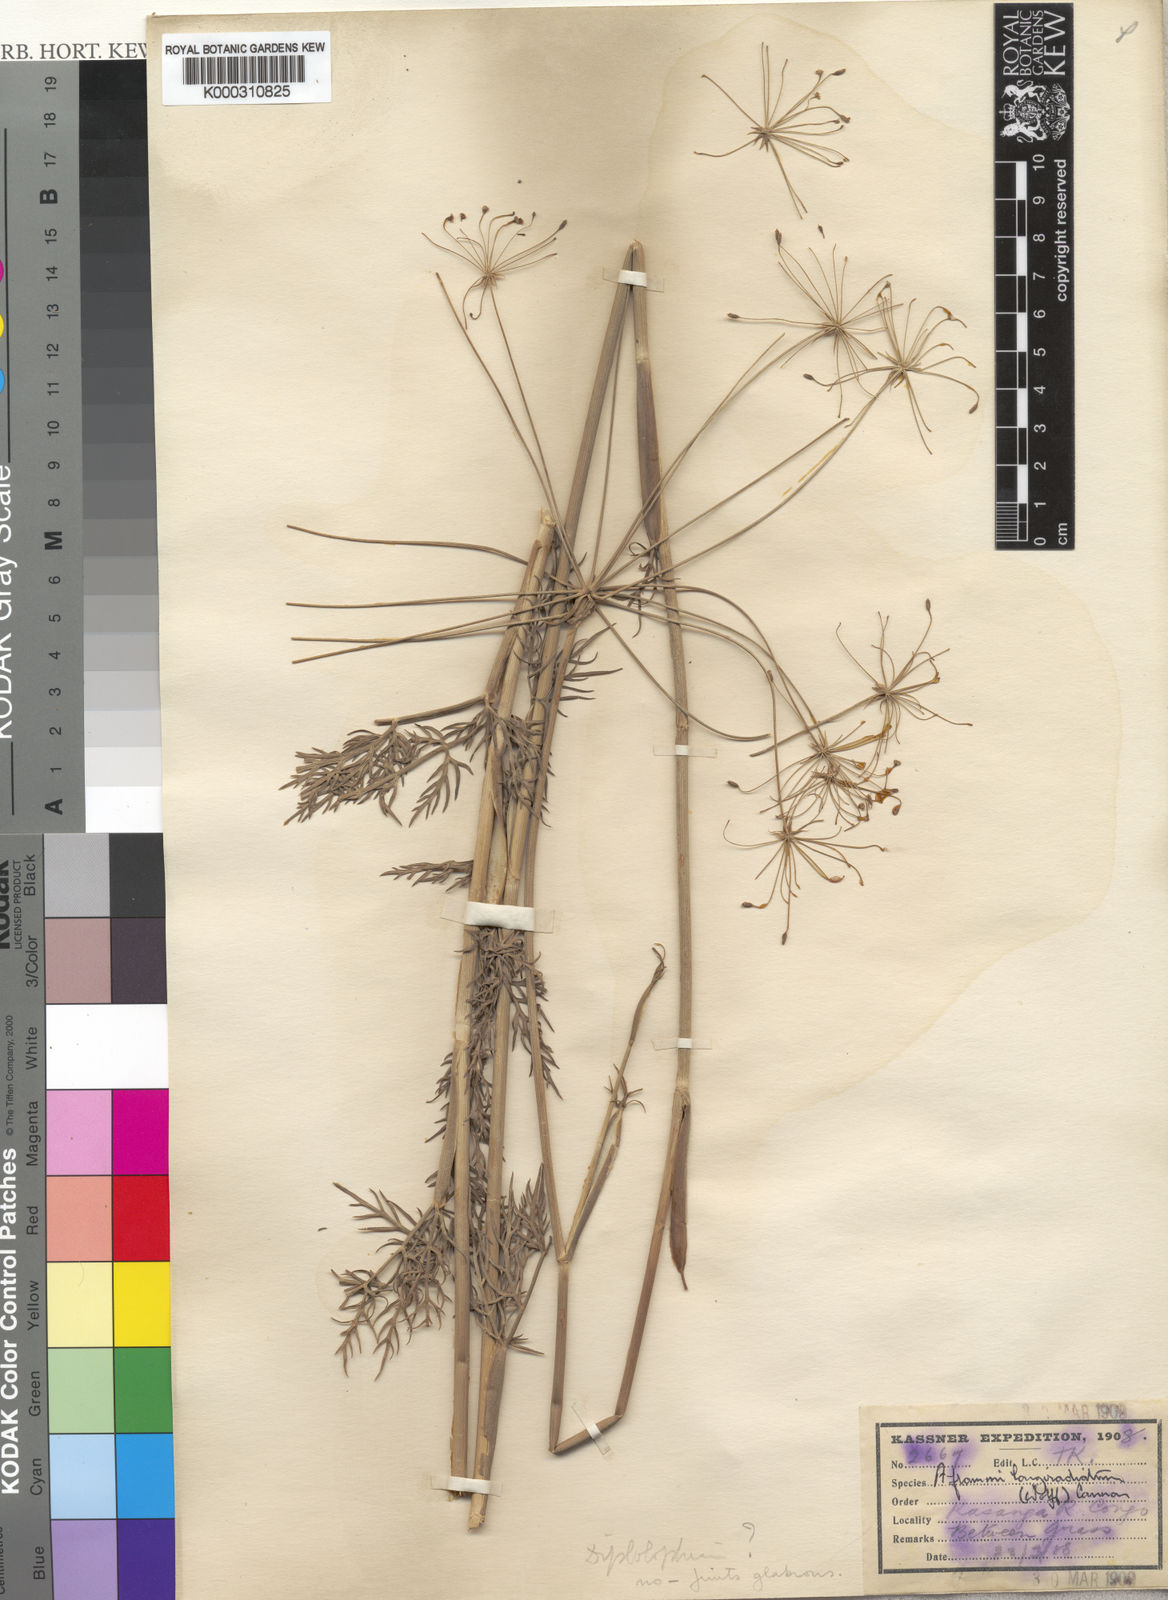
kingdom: Plantae
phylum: Tracheophyta
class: Magnoliopsida
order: Apiales
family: Apiaceae
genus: Physotrichia
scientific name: Physotrichia longiradiatum
